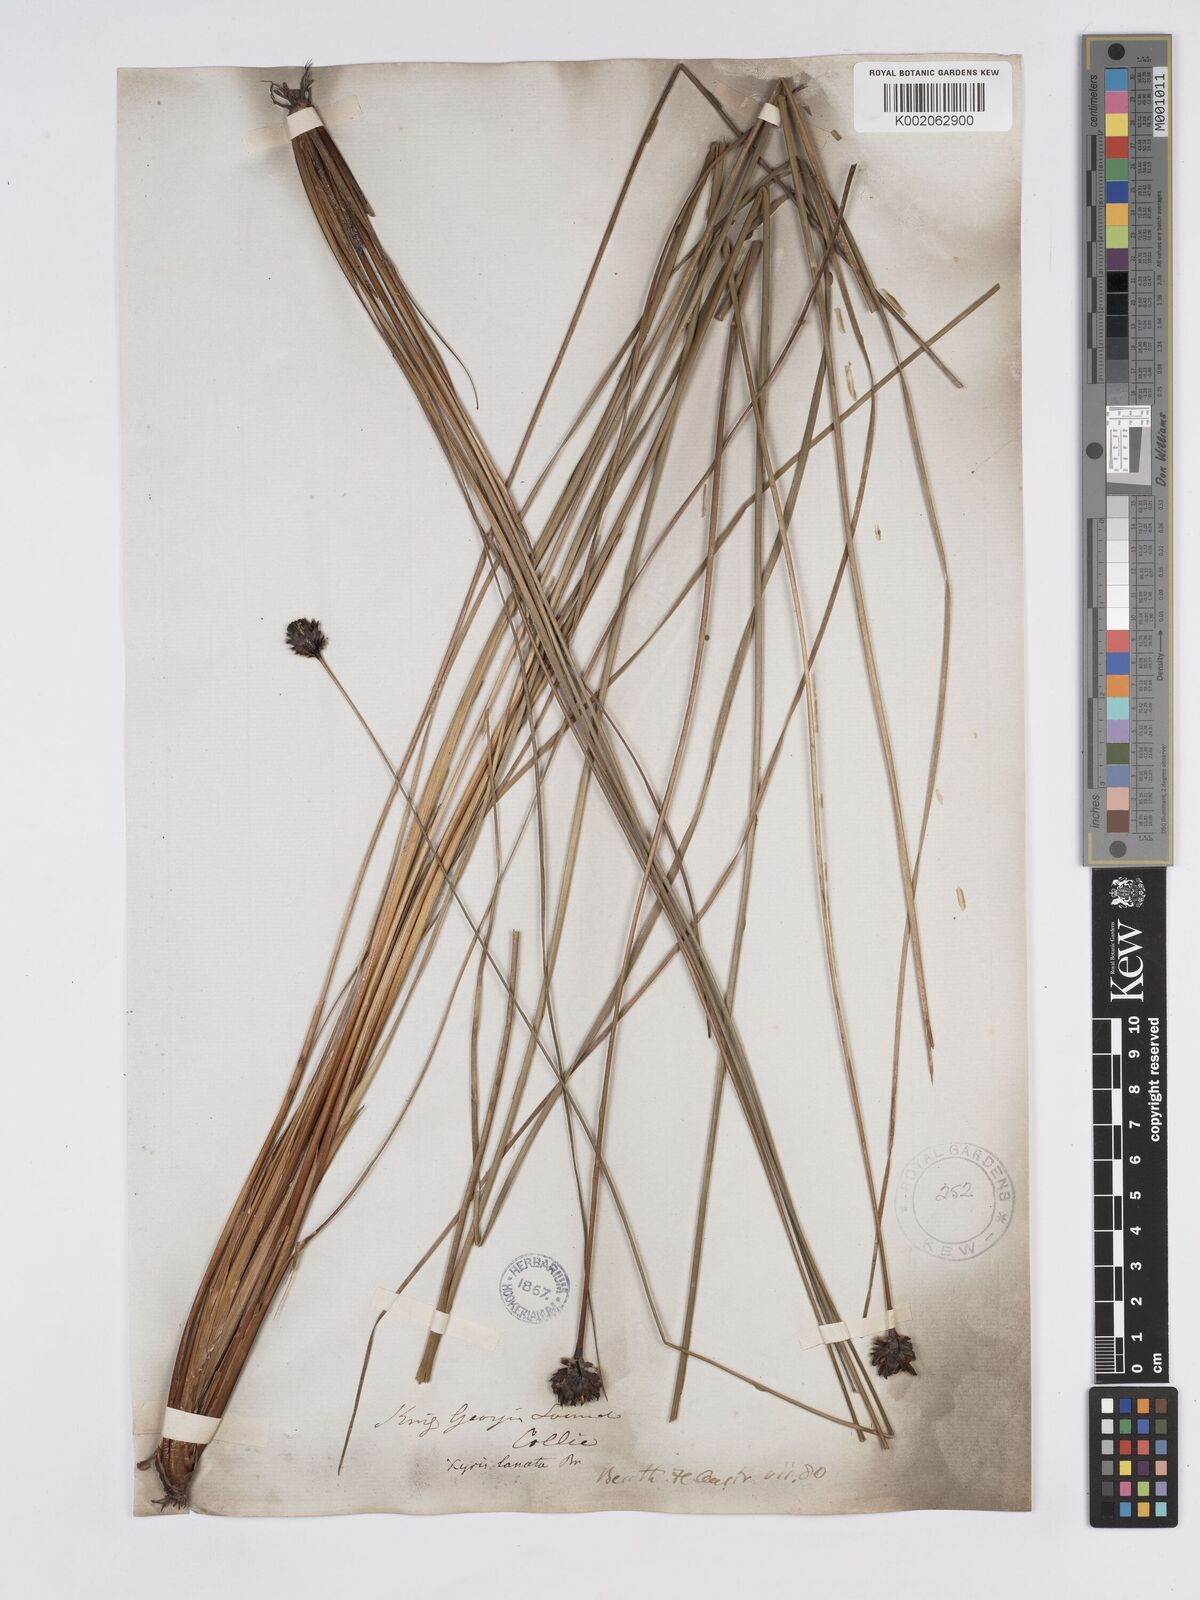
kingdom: Plantae
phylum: Tracheophyta
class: Liliopsida
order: Poales
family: Xyridaceae
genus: Xyris
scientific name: Xyris lanata
